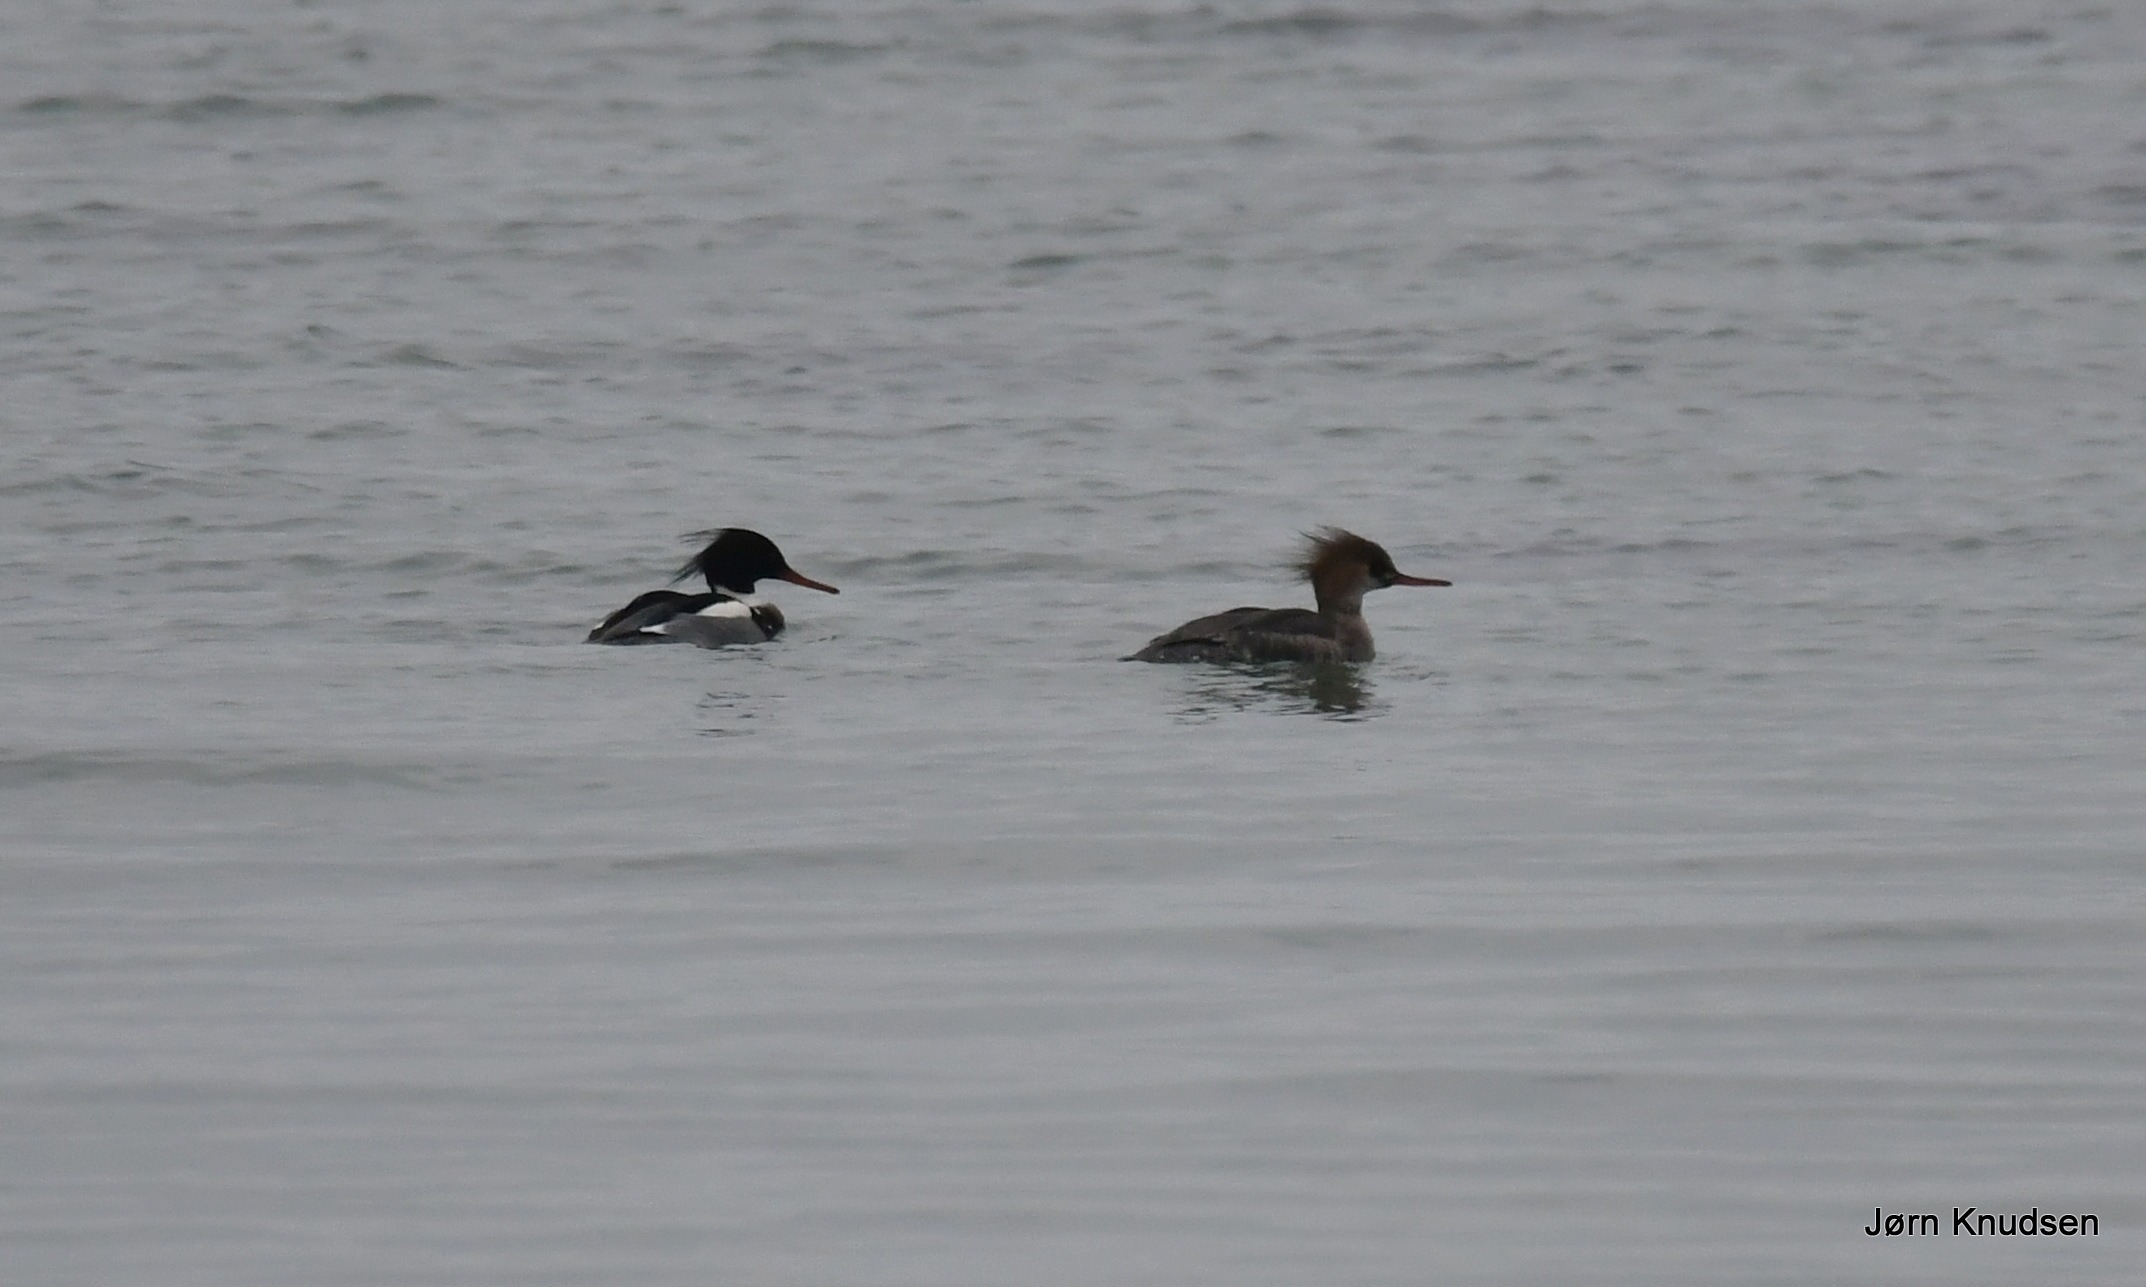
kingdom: Animalia
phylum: Chordata
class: Aves
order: Anseriformes
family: Anatidae
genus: Mergus
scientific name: Mergus serrator
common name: Toppet skallesluger
